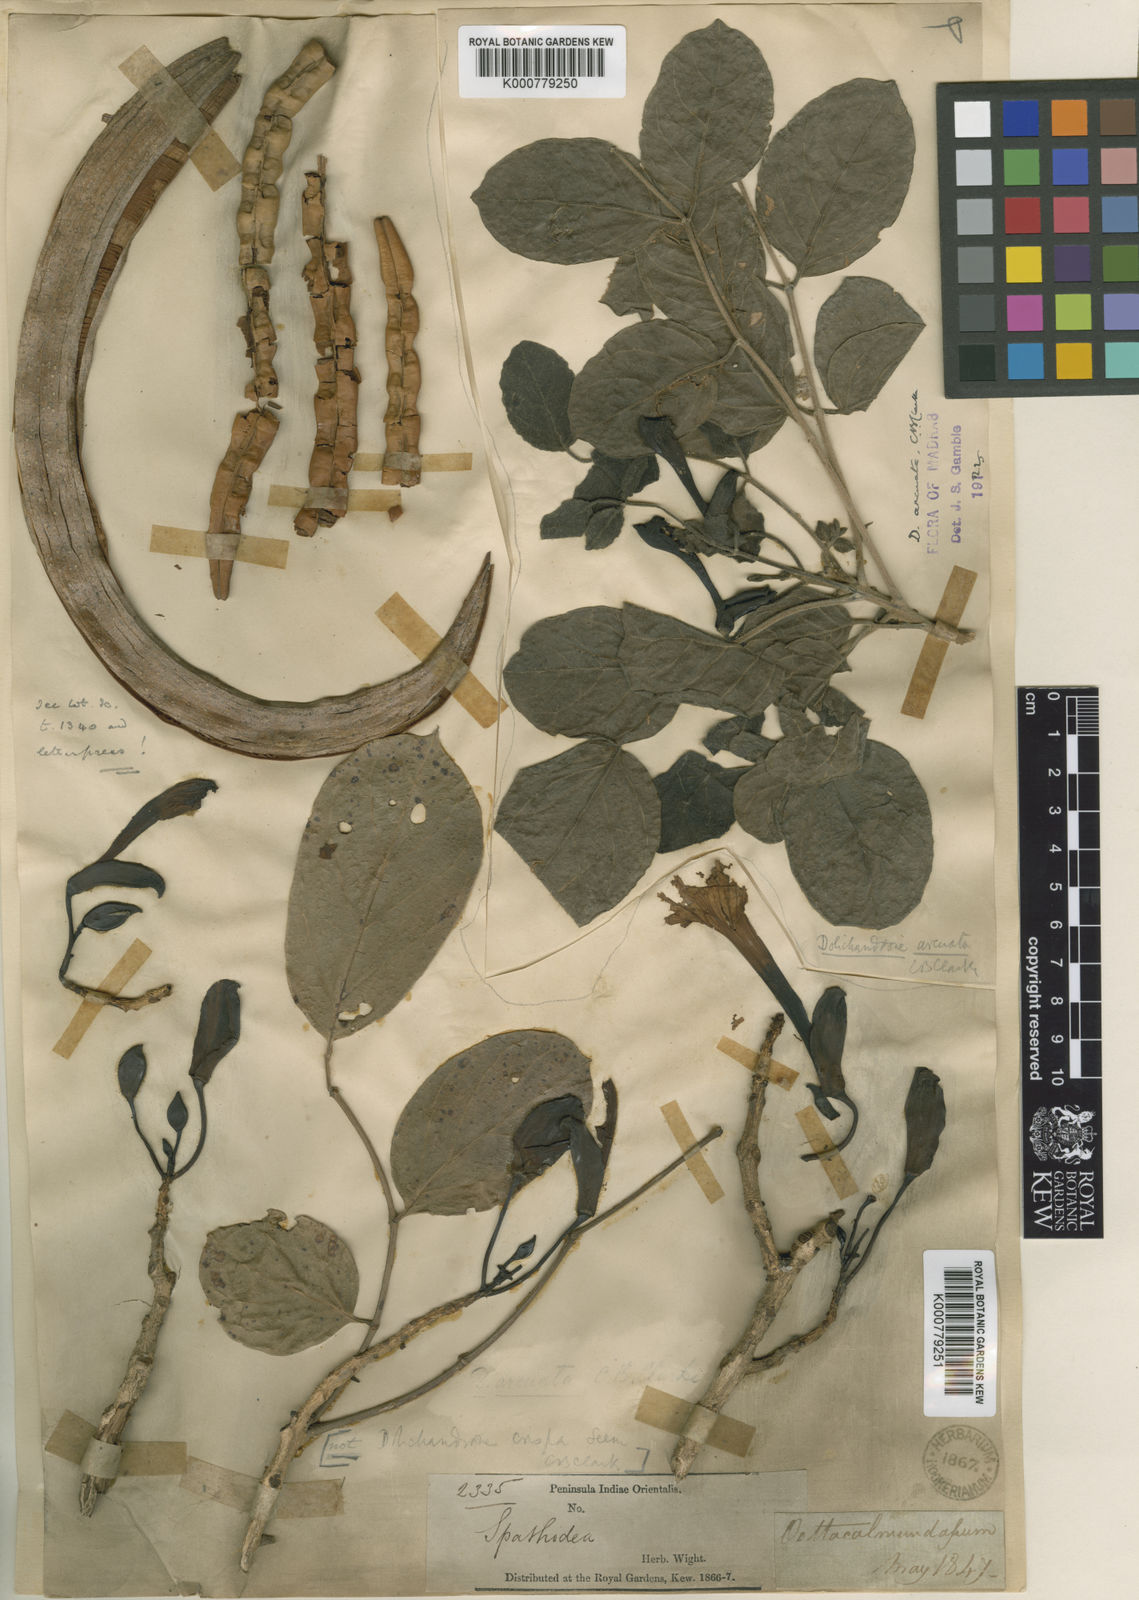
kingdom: Plantae
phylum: Tracheophyta
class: Magnoliopsida
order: Lamiales
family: Bignoniaceae
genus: Dolichandrone
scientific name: Dolichandrone arcuata
